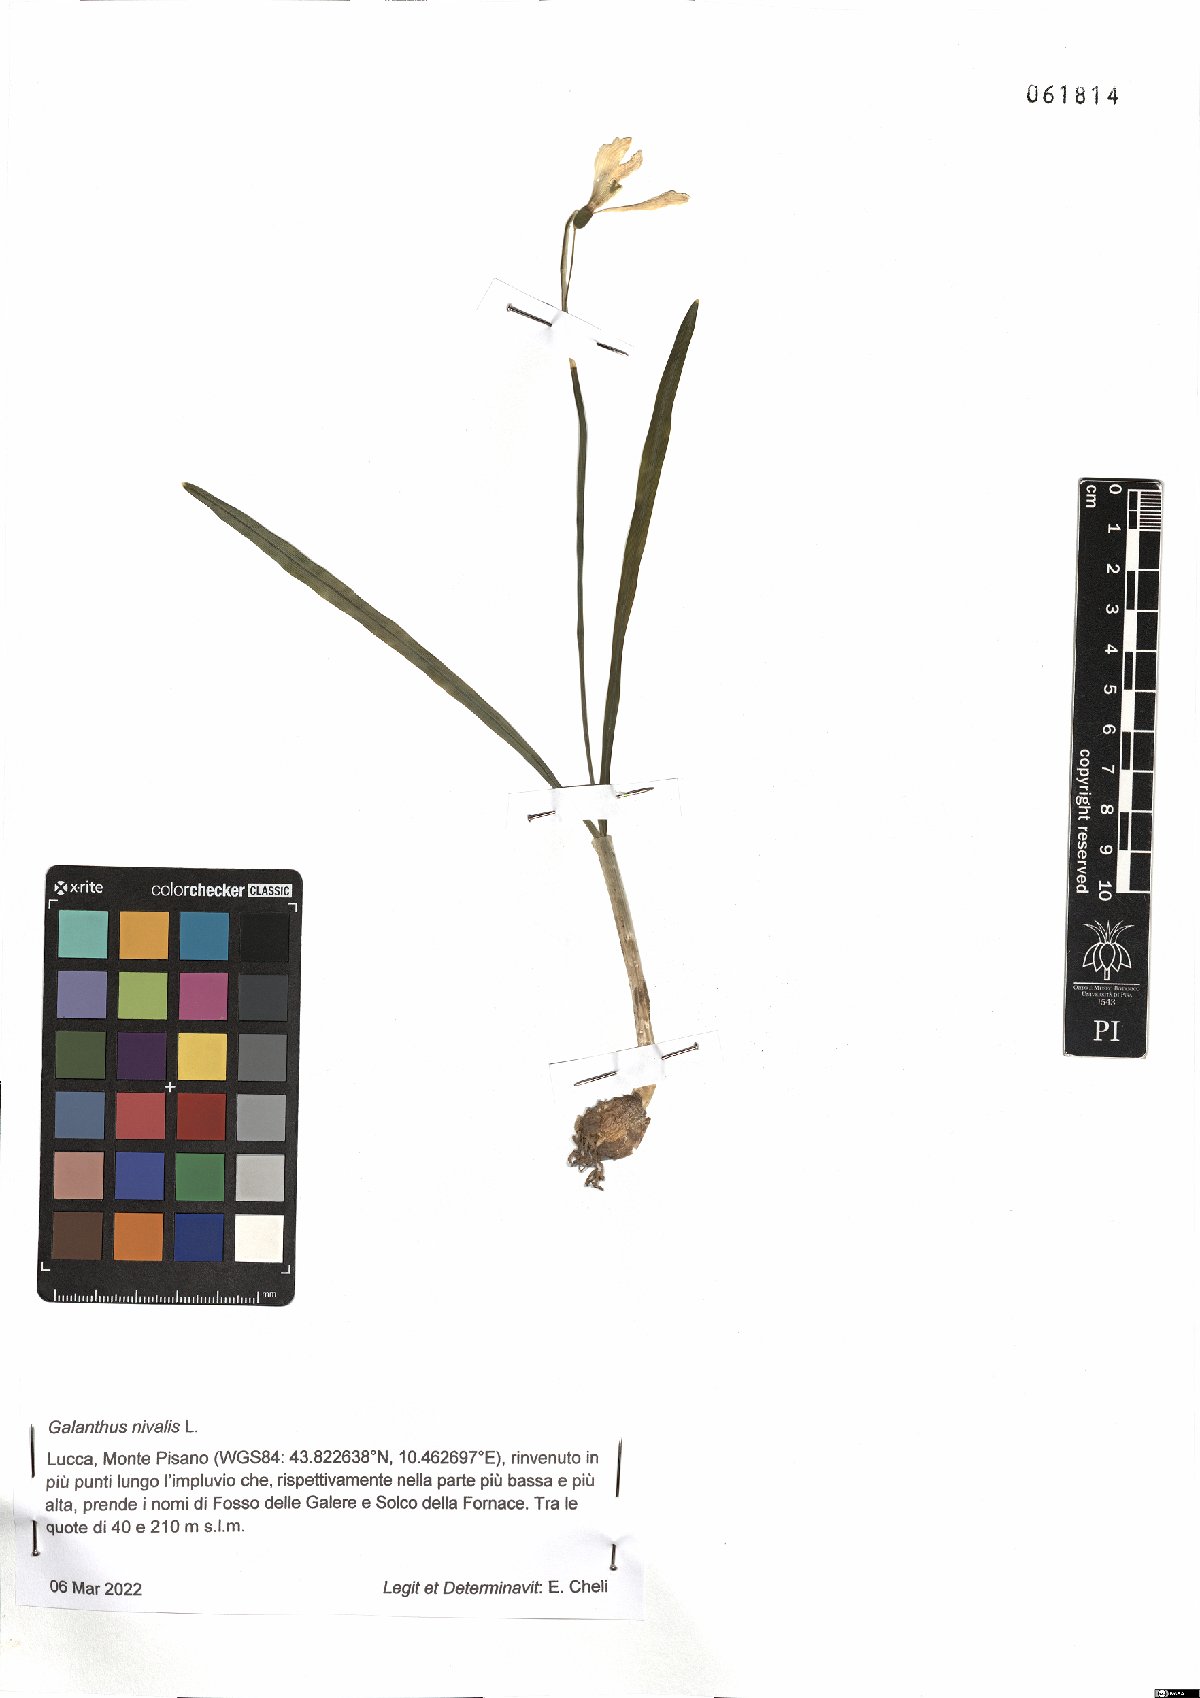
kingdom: Plantae
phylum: Tracheophyta
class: Liliopsida
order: Asparagales
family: Amaryllidaceae
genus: Galanthus
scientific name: Galanthus nivalis
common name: Snowdrop
